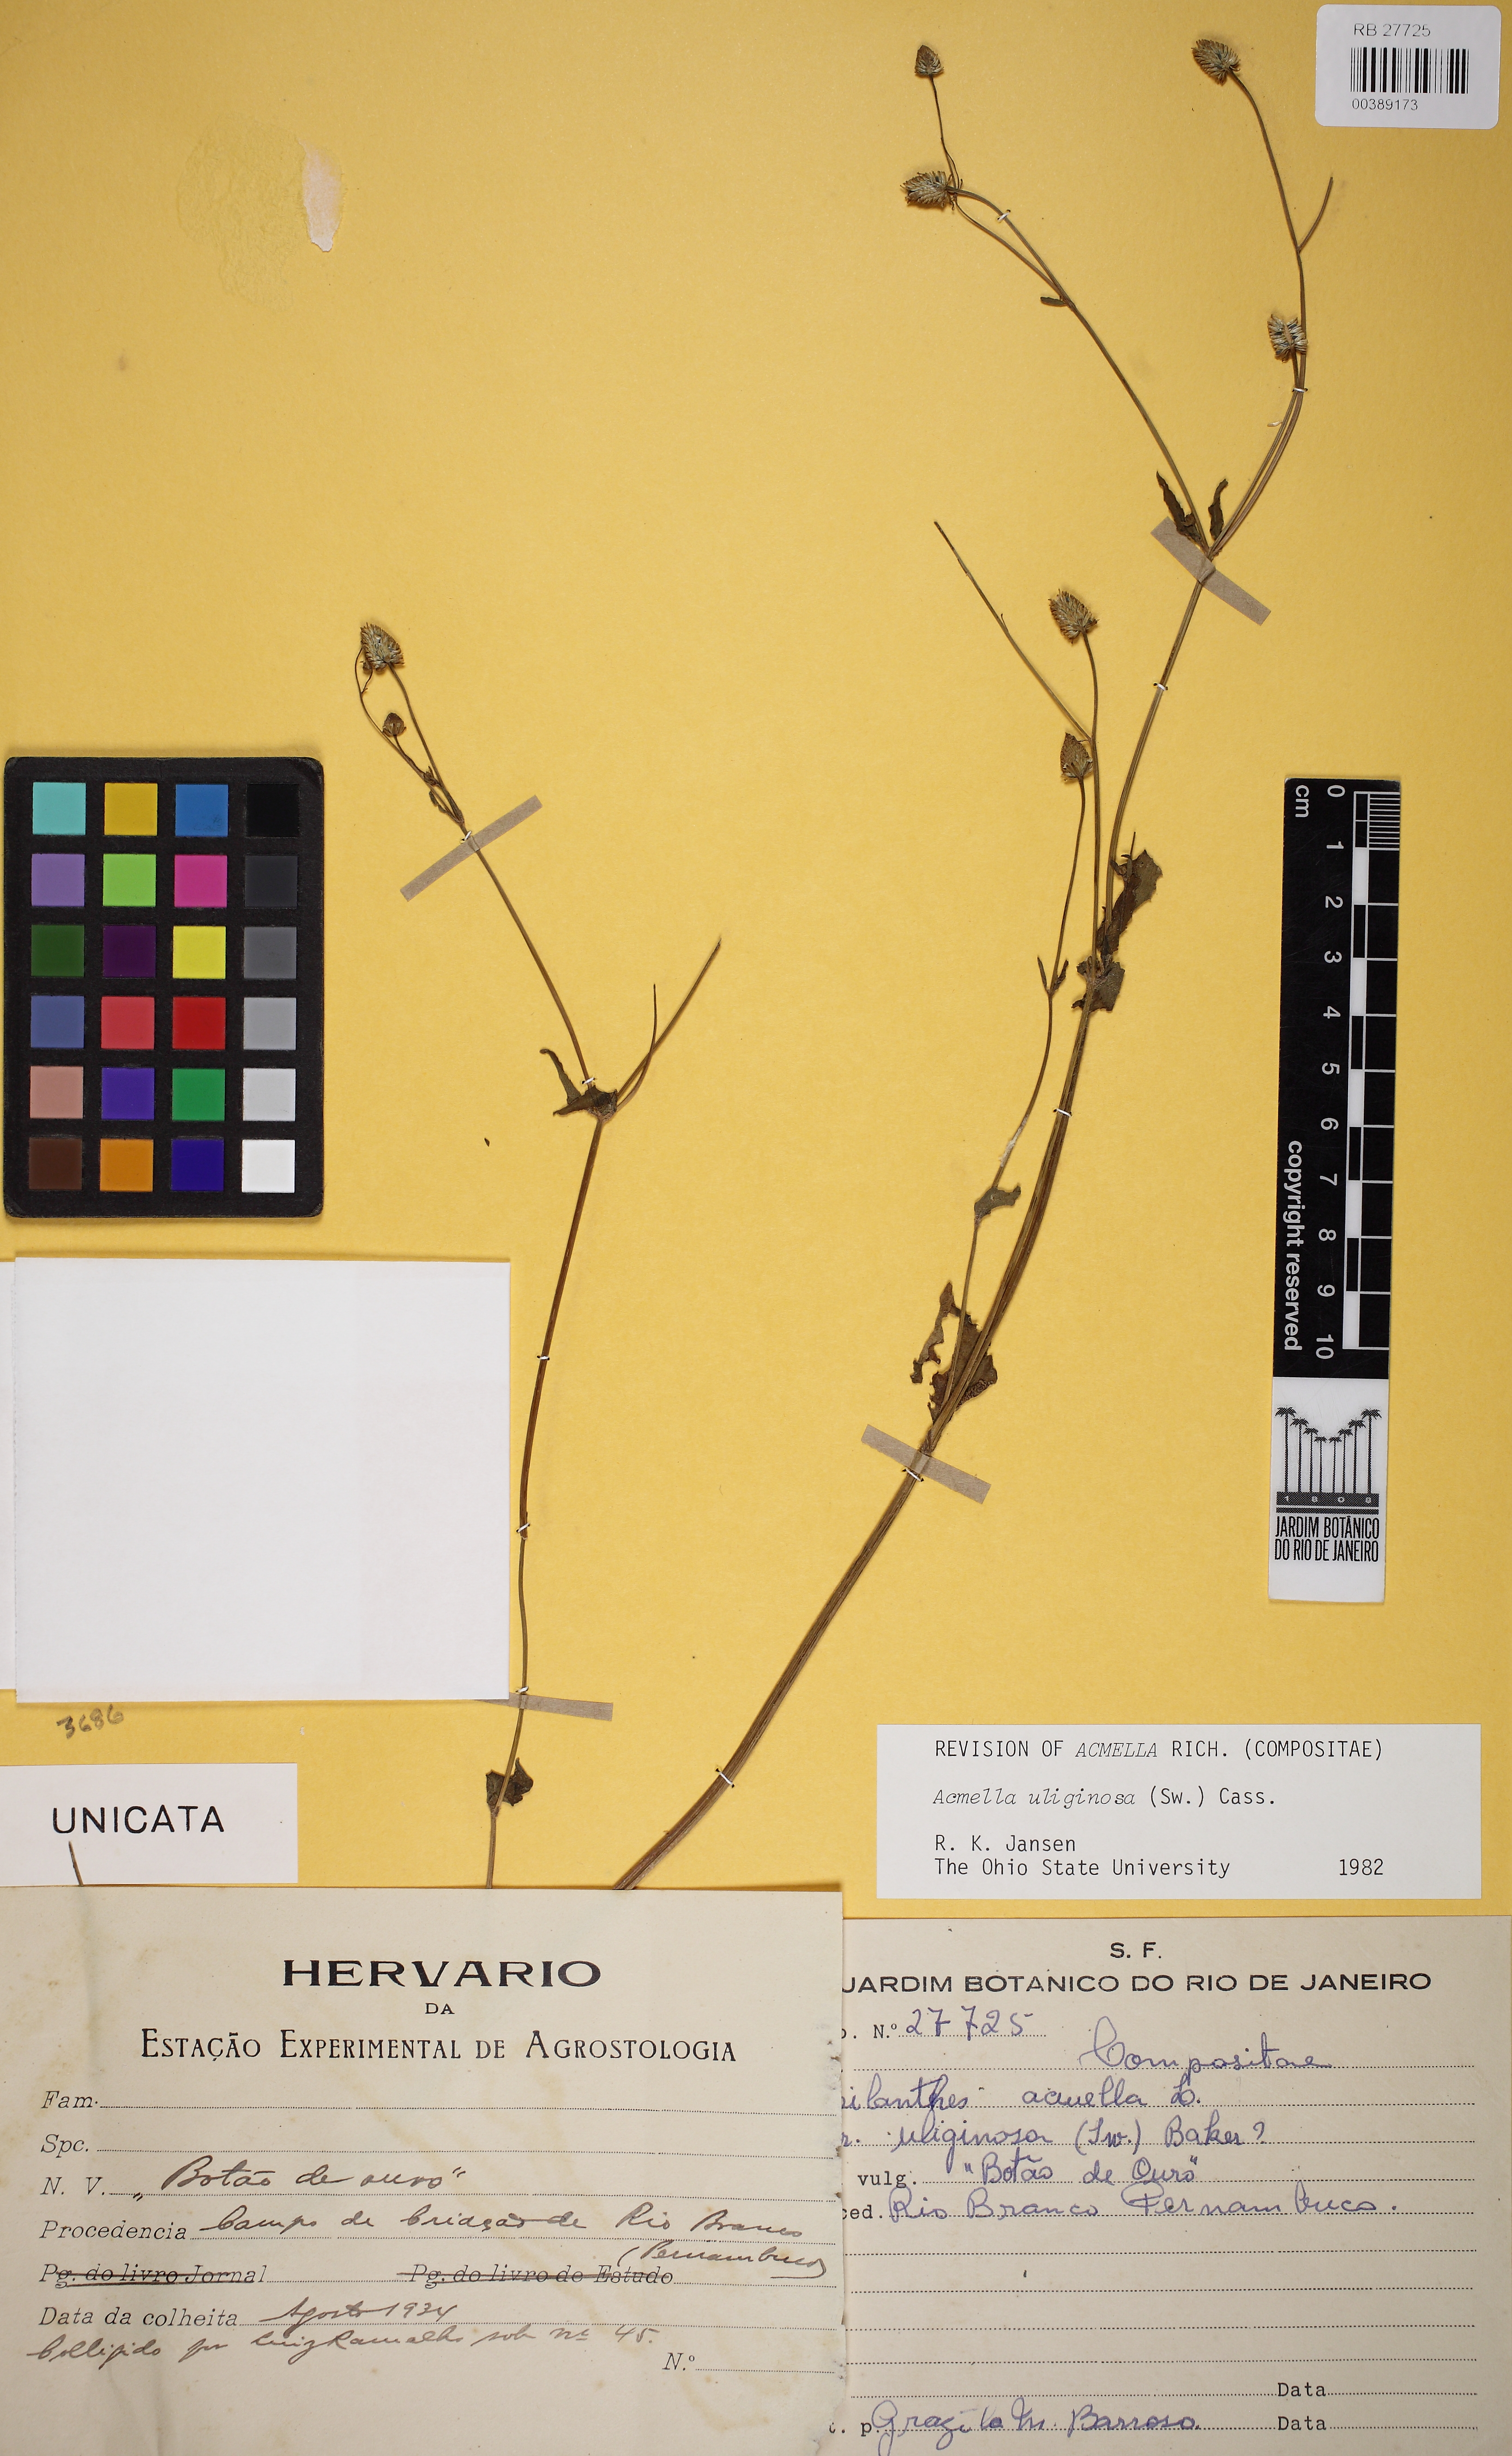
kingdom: Plantae
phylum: Tracheophyta
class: Magnoliopsida
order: Asterales
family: Asteraceae
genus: Acmella
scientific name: Acmella uliginosa
